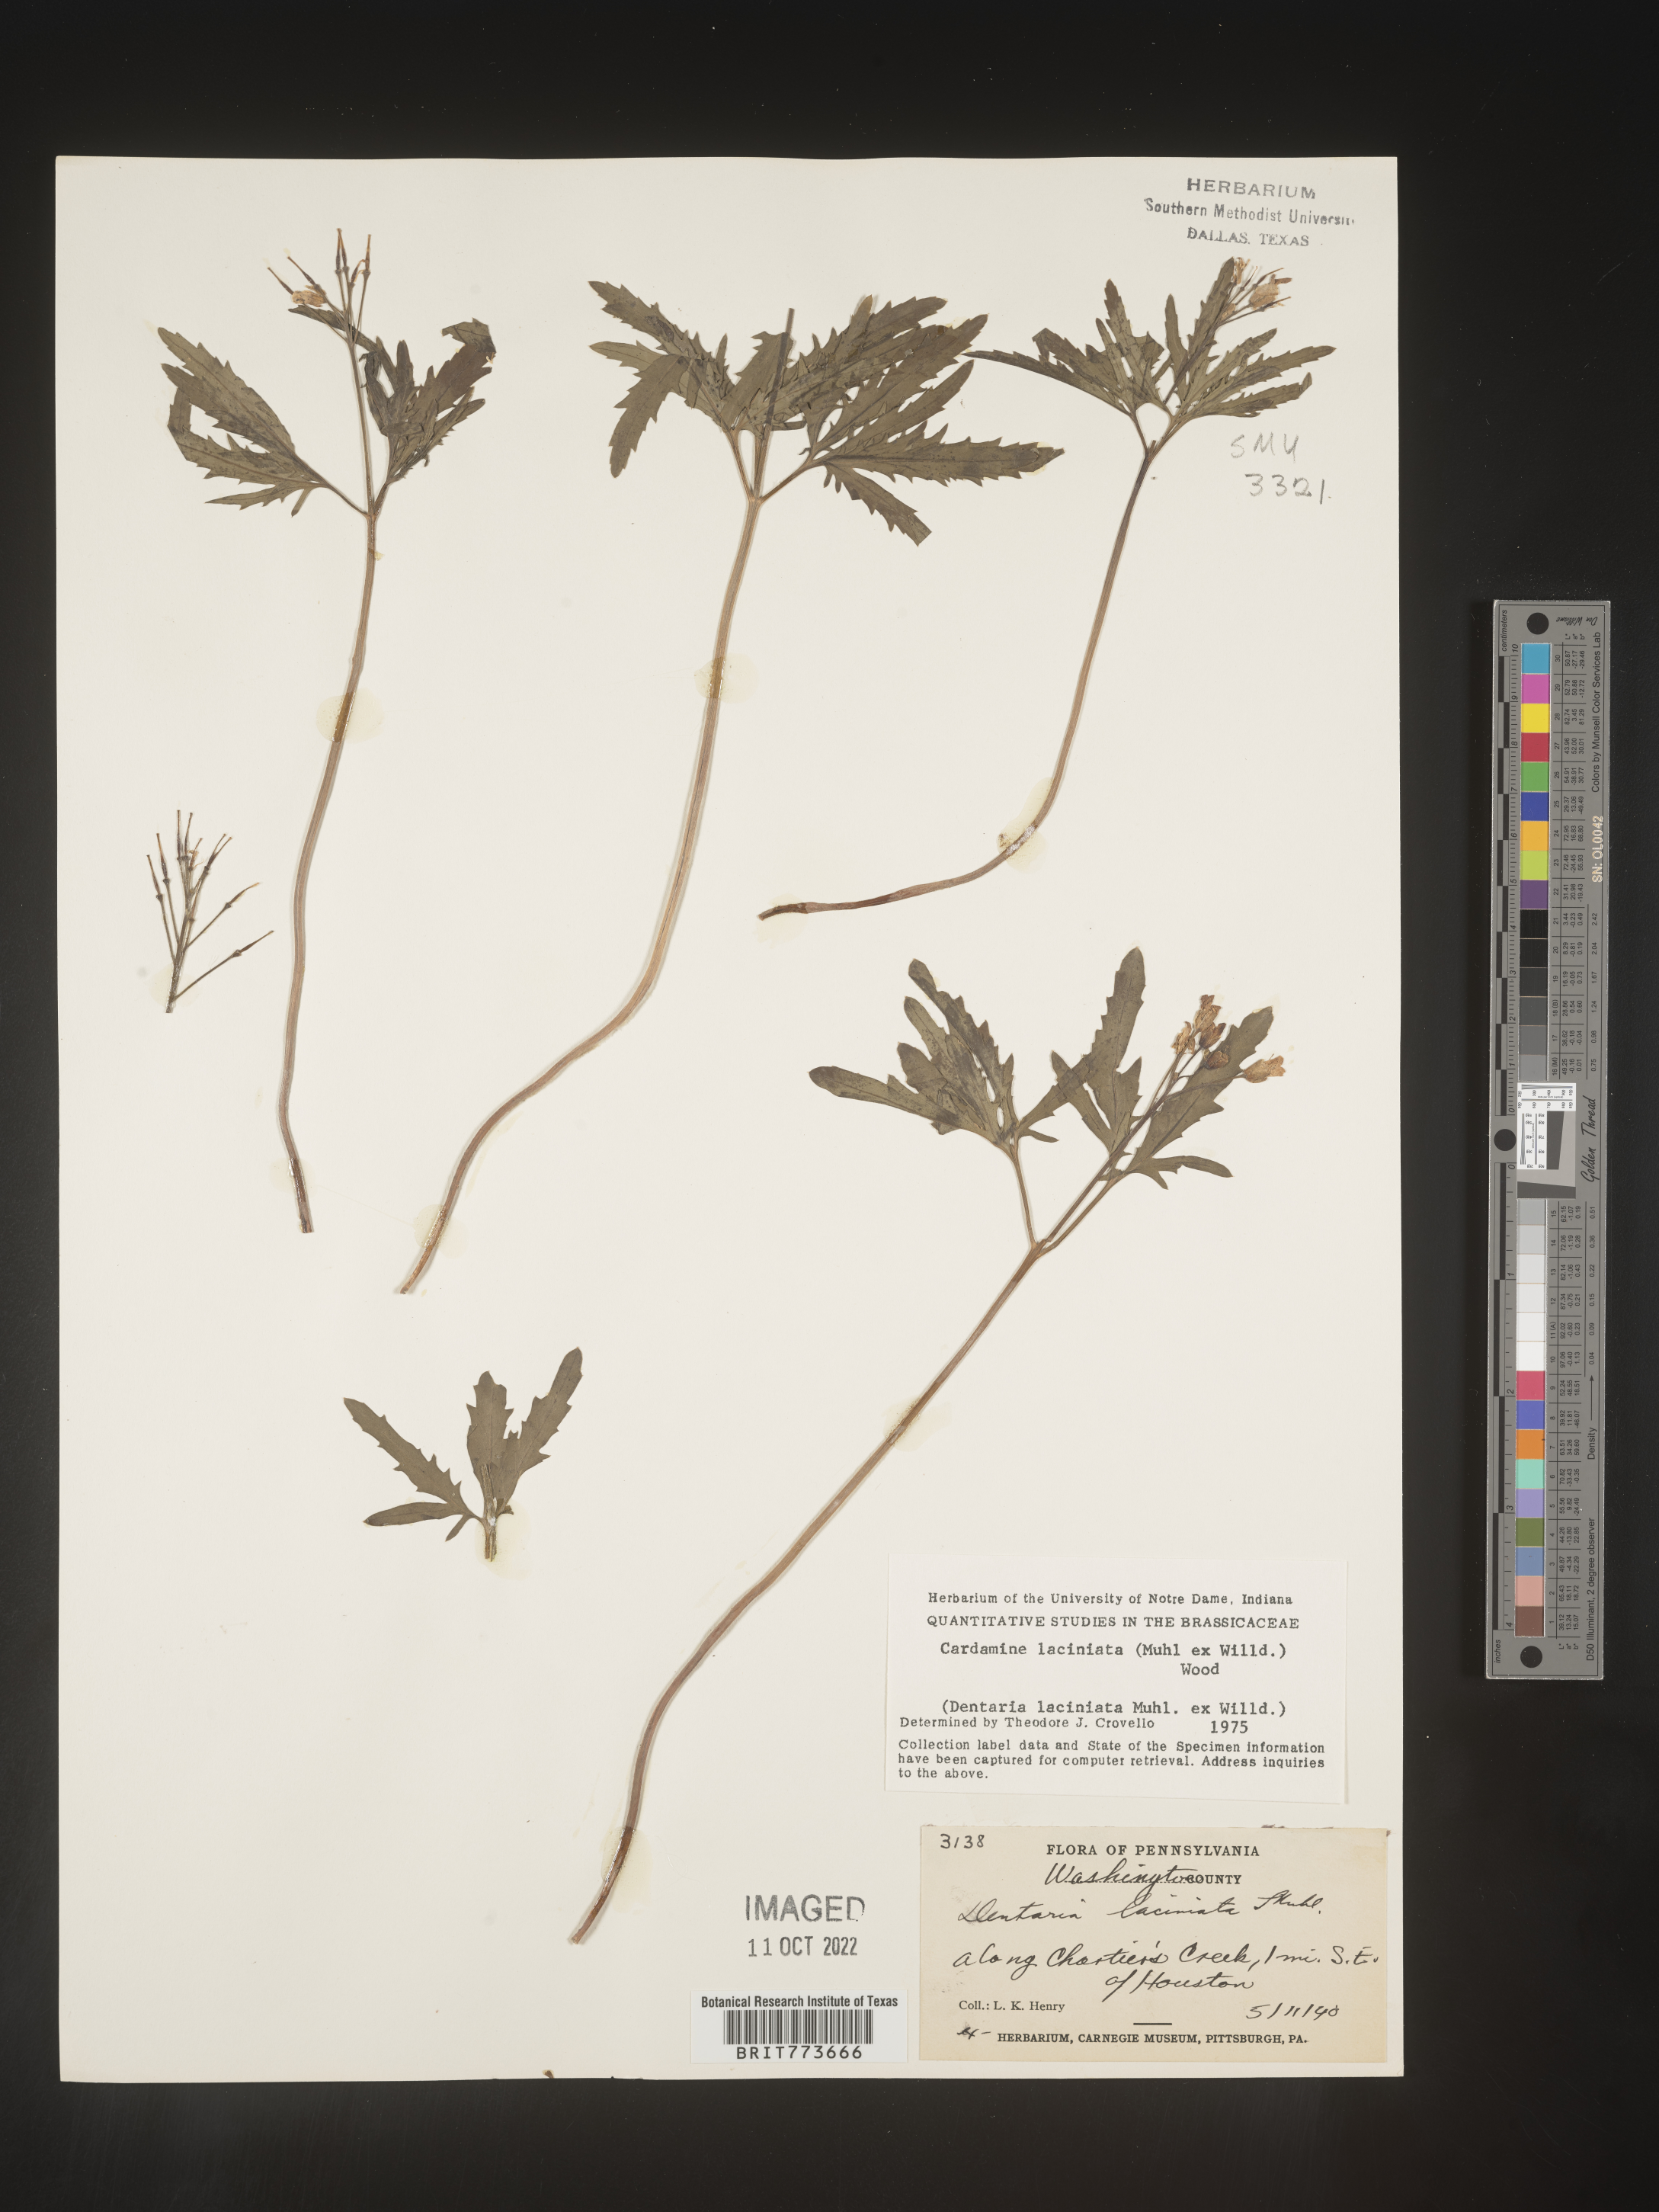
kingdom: Plantae
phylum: Tracheophyta
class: Magnoliopsida
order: Brassicales
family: Brassicaceae
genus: Rorippa
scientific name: Rorippa laciniata
